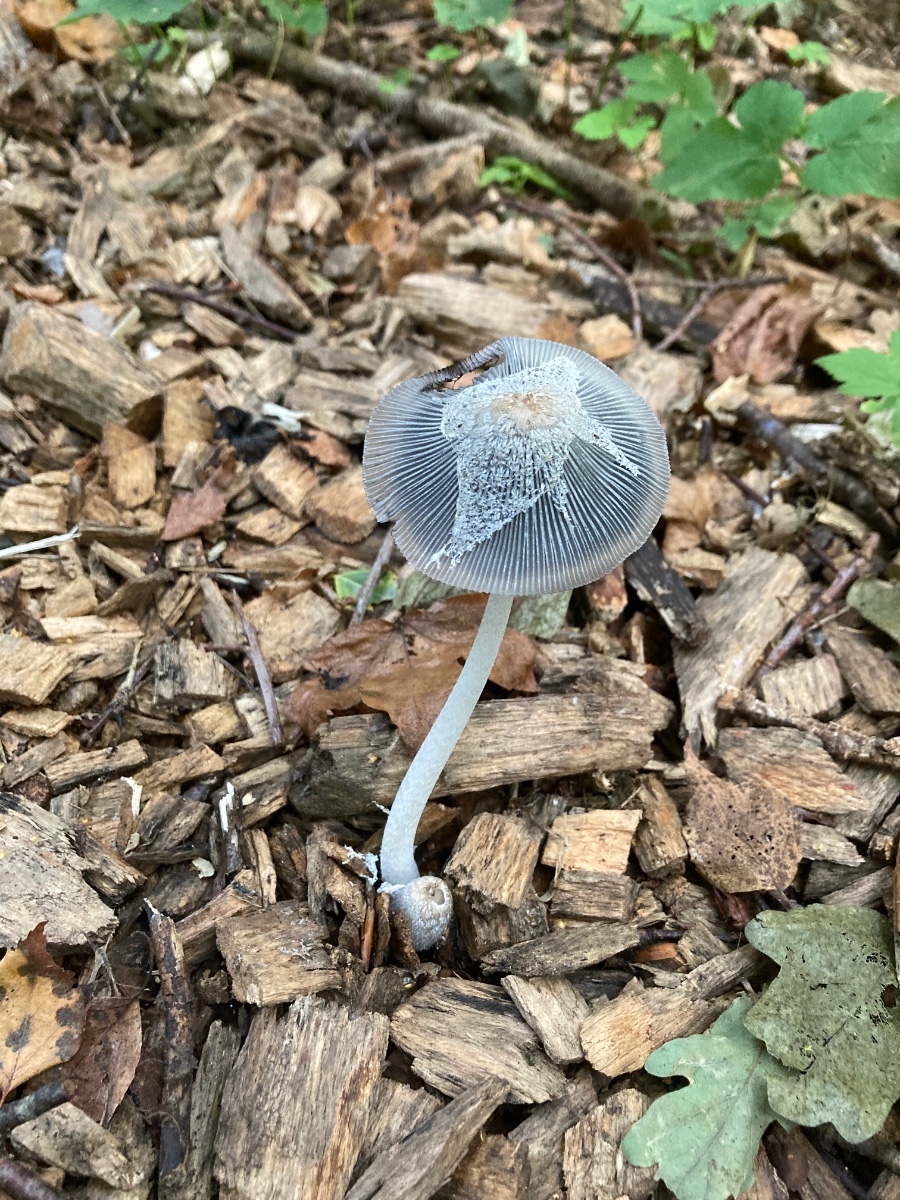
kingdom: Fungi
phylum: Basidiomycota
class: Agaricomycetes
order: Agaricales
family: Psathyrellaceae
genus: Coprinopsis
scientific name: Coprinopsis lagopus
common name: dunstokket blækhat
